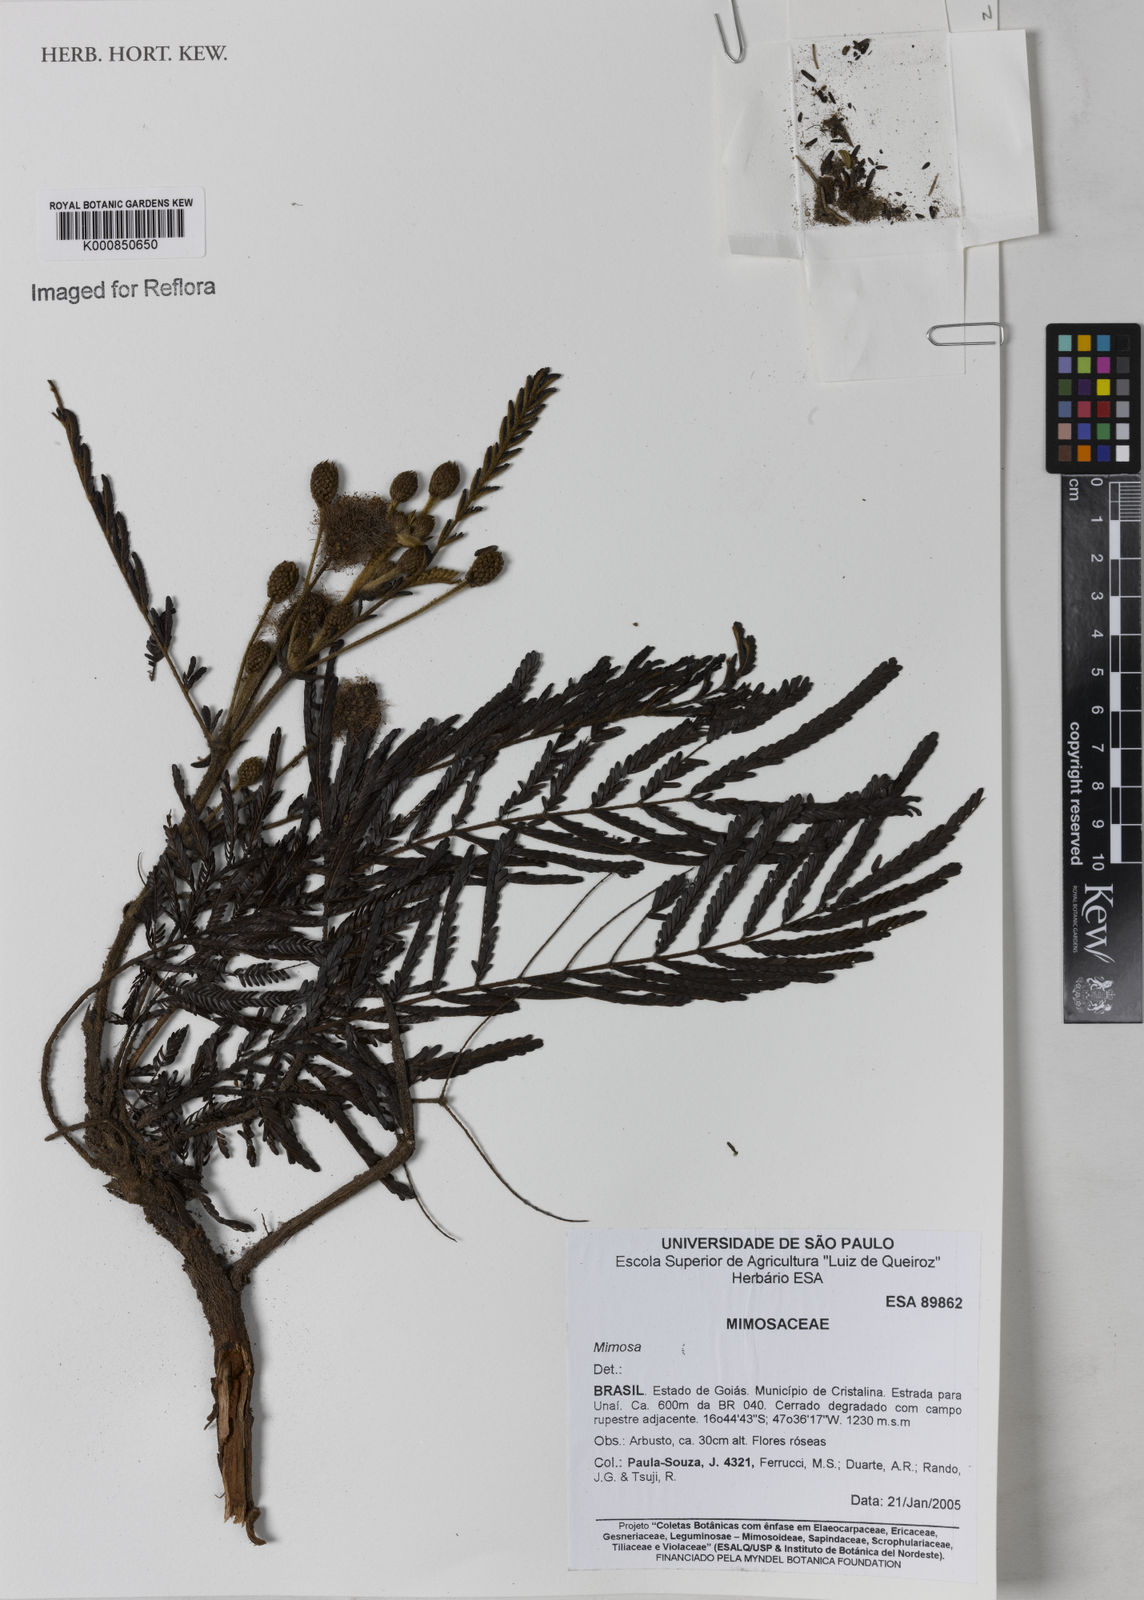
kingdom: Plantae
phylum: Tracheophyta
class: Magnoliopsida
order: Fabales
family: Fabaceae
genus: Mimosa
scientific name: Mimosa albolanata
